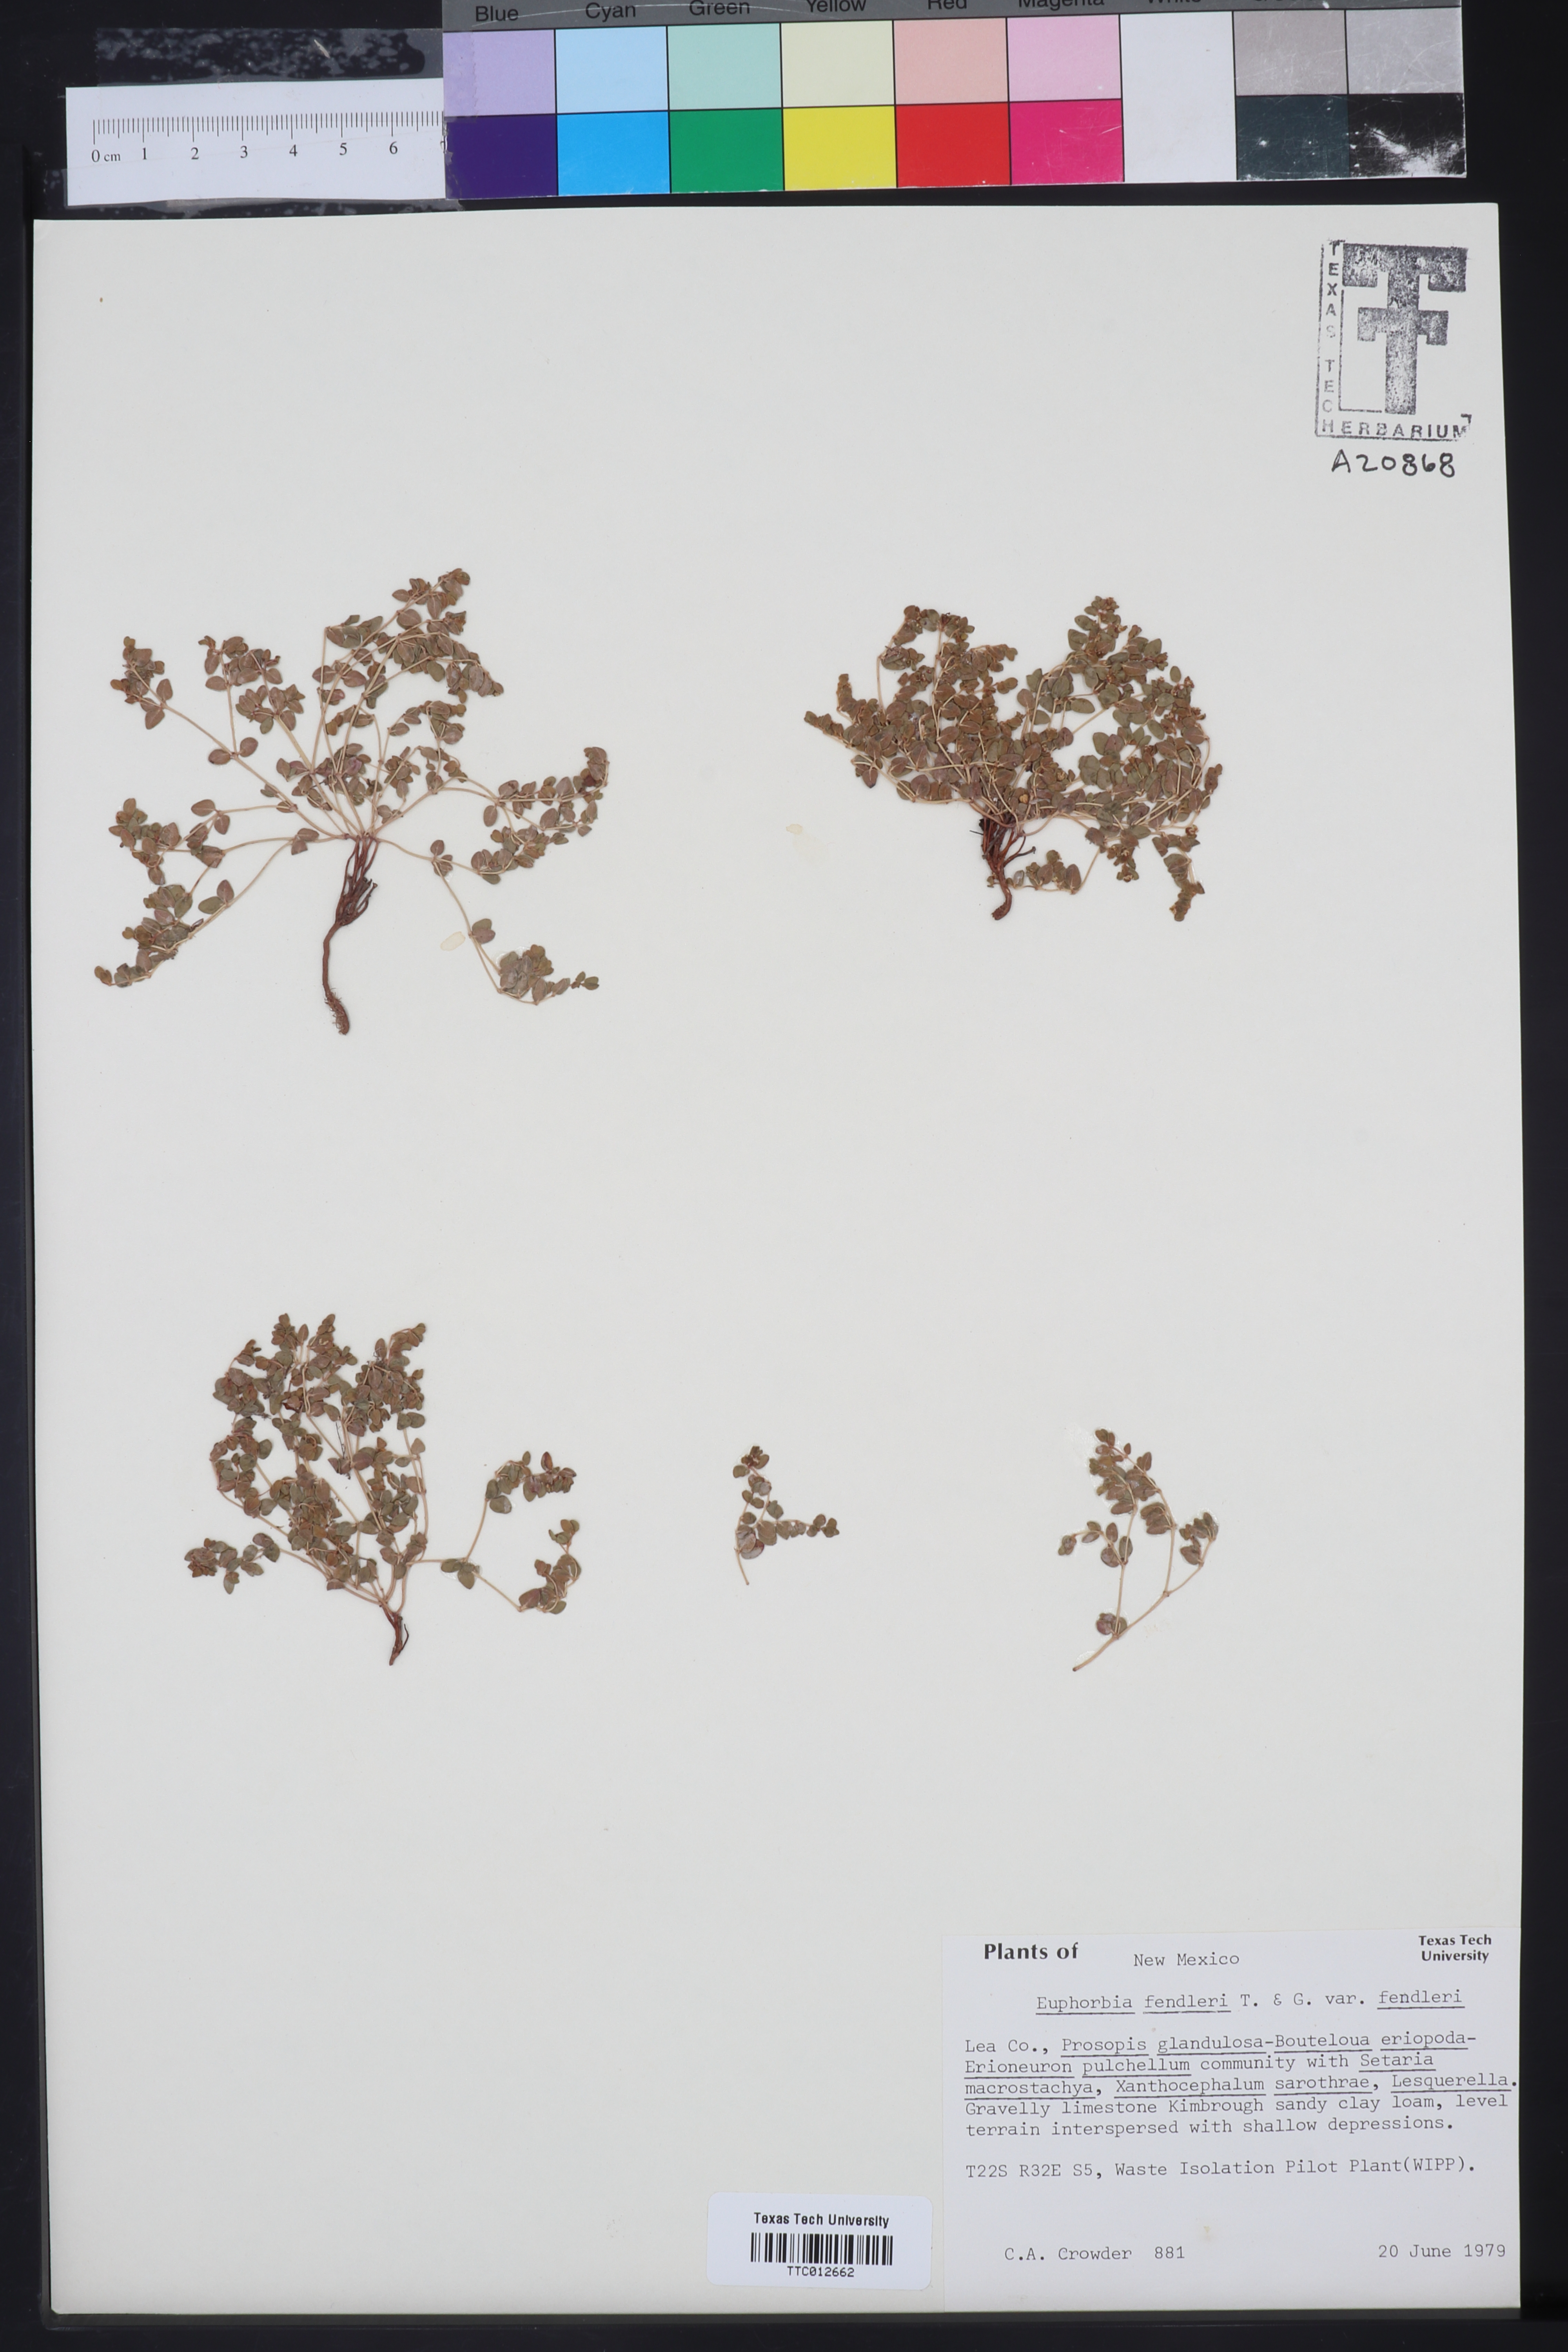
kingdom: Plantae
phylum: Tracheophyta
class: Magnoliopsida
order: Malpighiales
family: Euphorbiaceae
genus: Euphorbia
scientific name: Euphorbia fendleri
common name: Fendler's euphorbia
